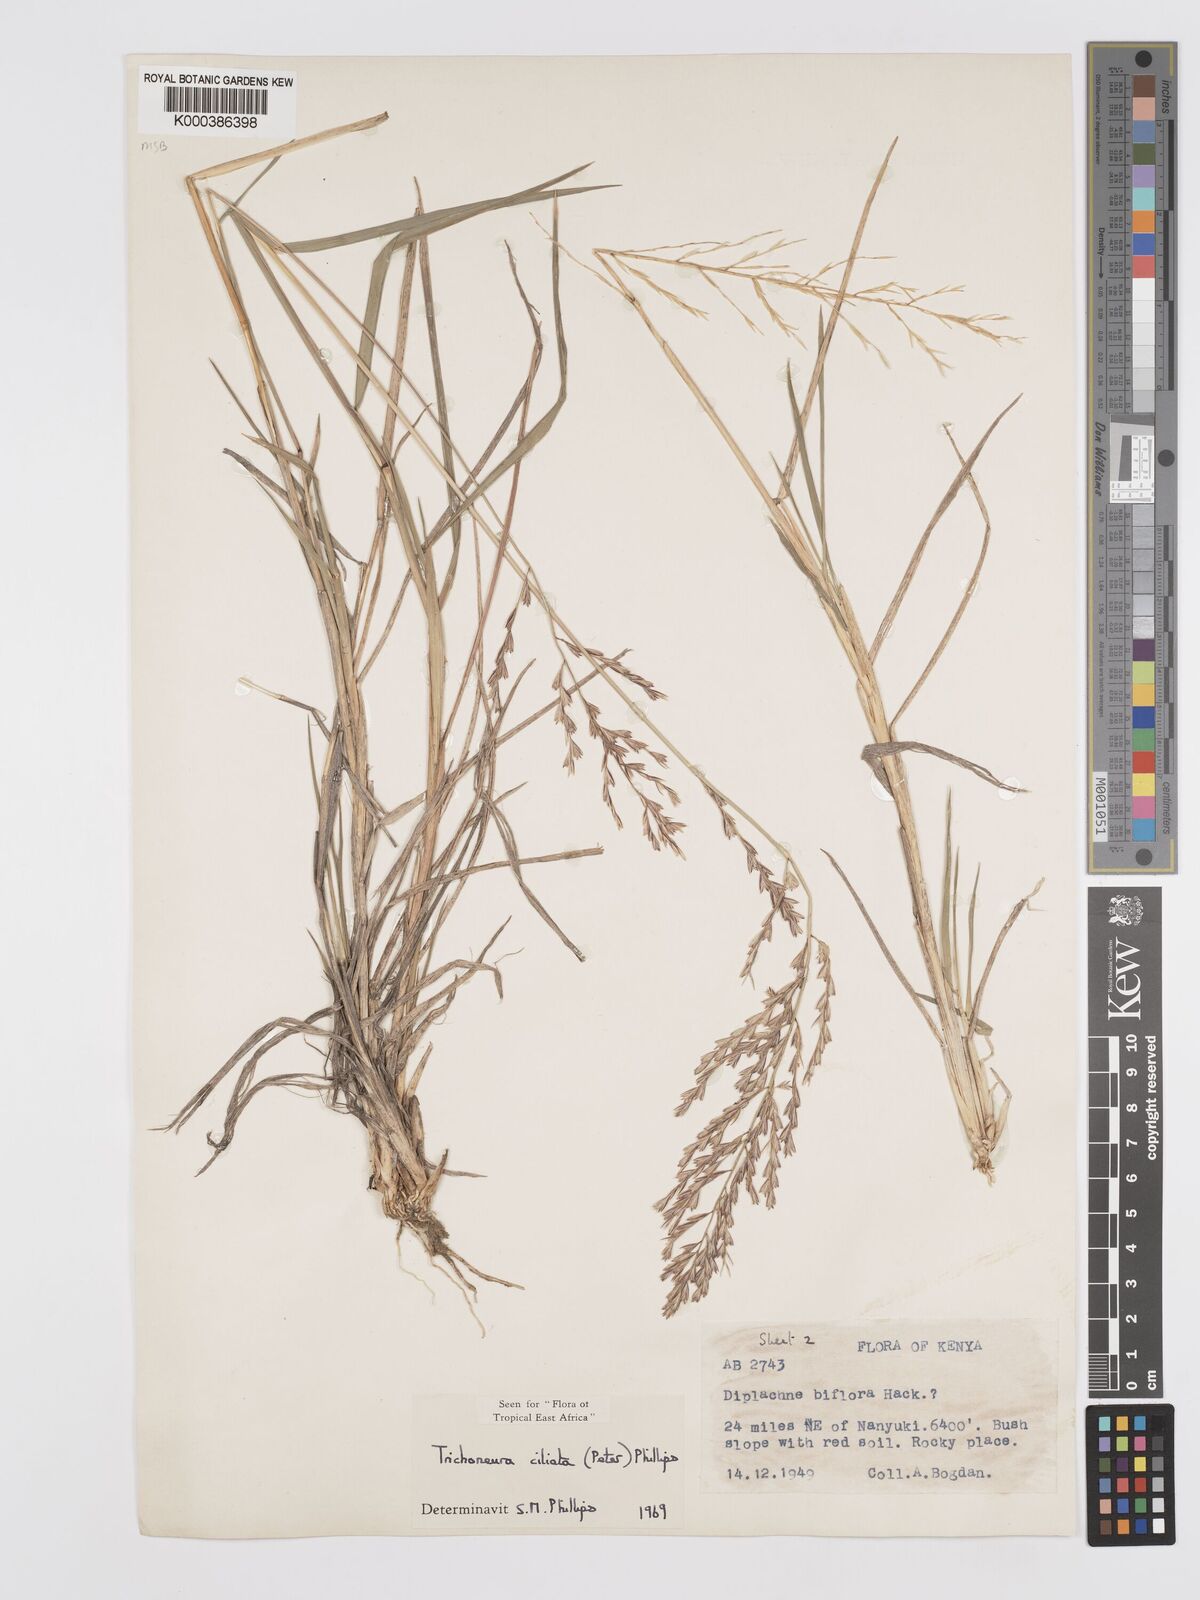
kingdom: Plantae
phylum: Tracheophyta
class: Liliopsida
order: Poales
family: Poaceae
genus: Trichoneura
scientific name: Trichoneura ciliata
